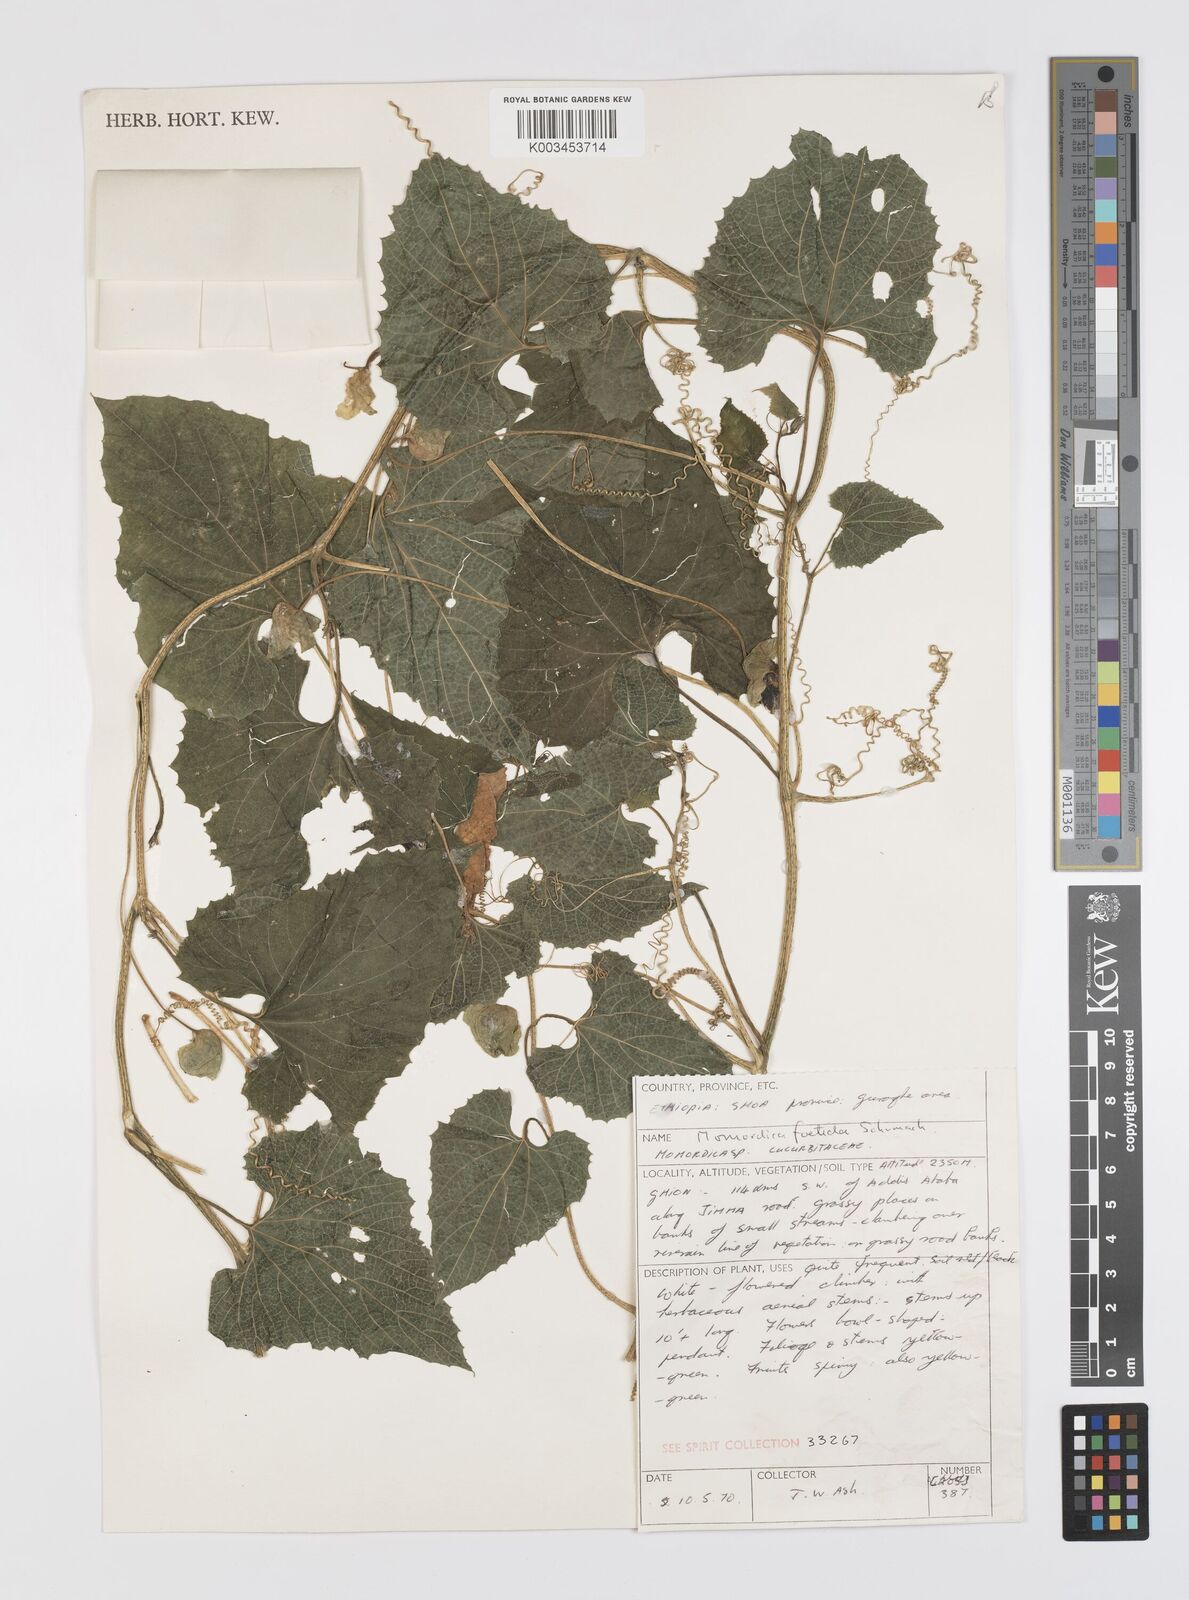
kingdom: Plantae
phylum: Tracheophyta
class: Magnoliopsida
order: Cucurbitales
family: Cucurbitaceae
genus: Momordica
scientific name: Momordica foetida
